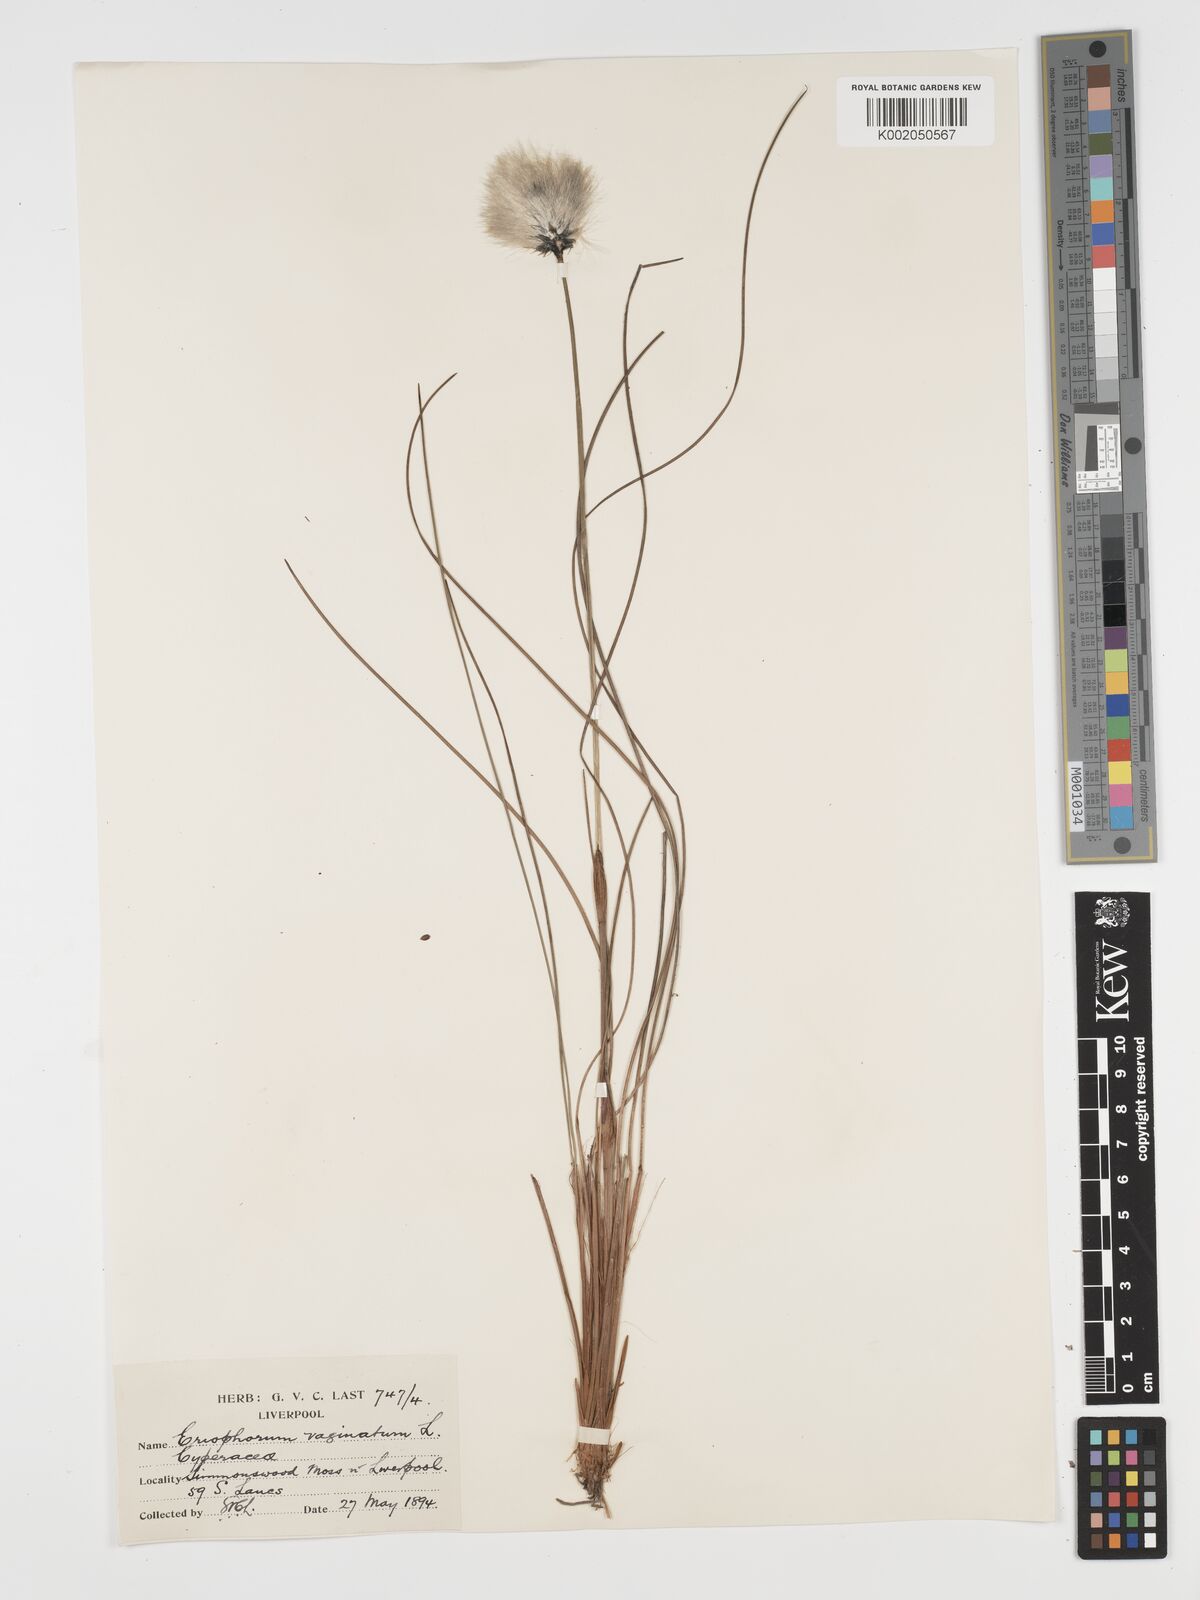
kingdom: Plantae
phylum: Tracheophyta
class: Liliopsida
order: Poales
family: Cyperaceae
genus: Eriophorum
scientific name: Eriophorum vaginatum
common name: Hare's-tail cottongrass
